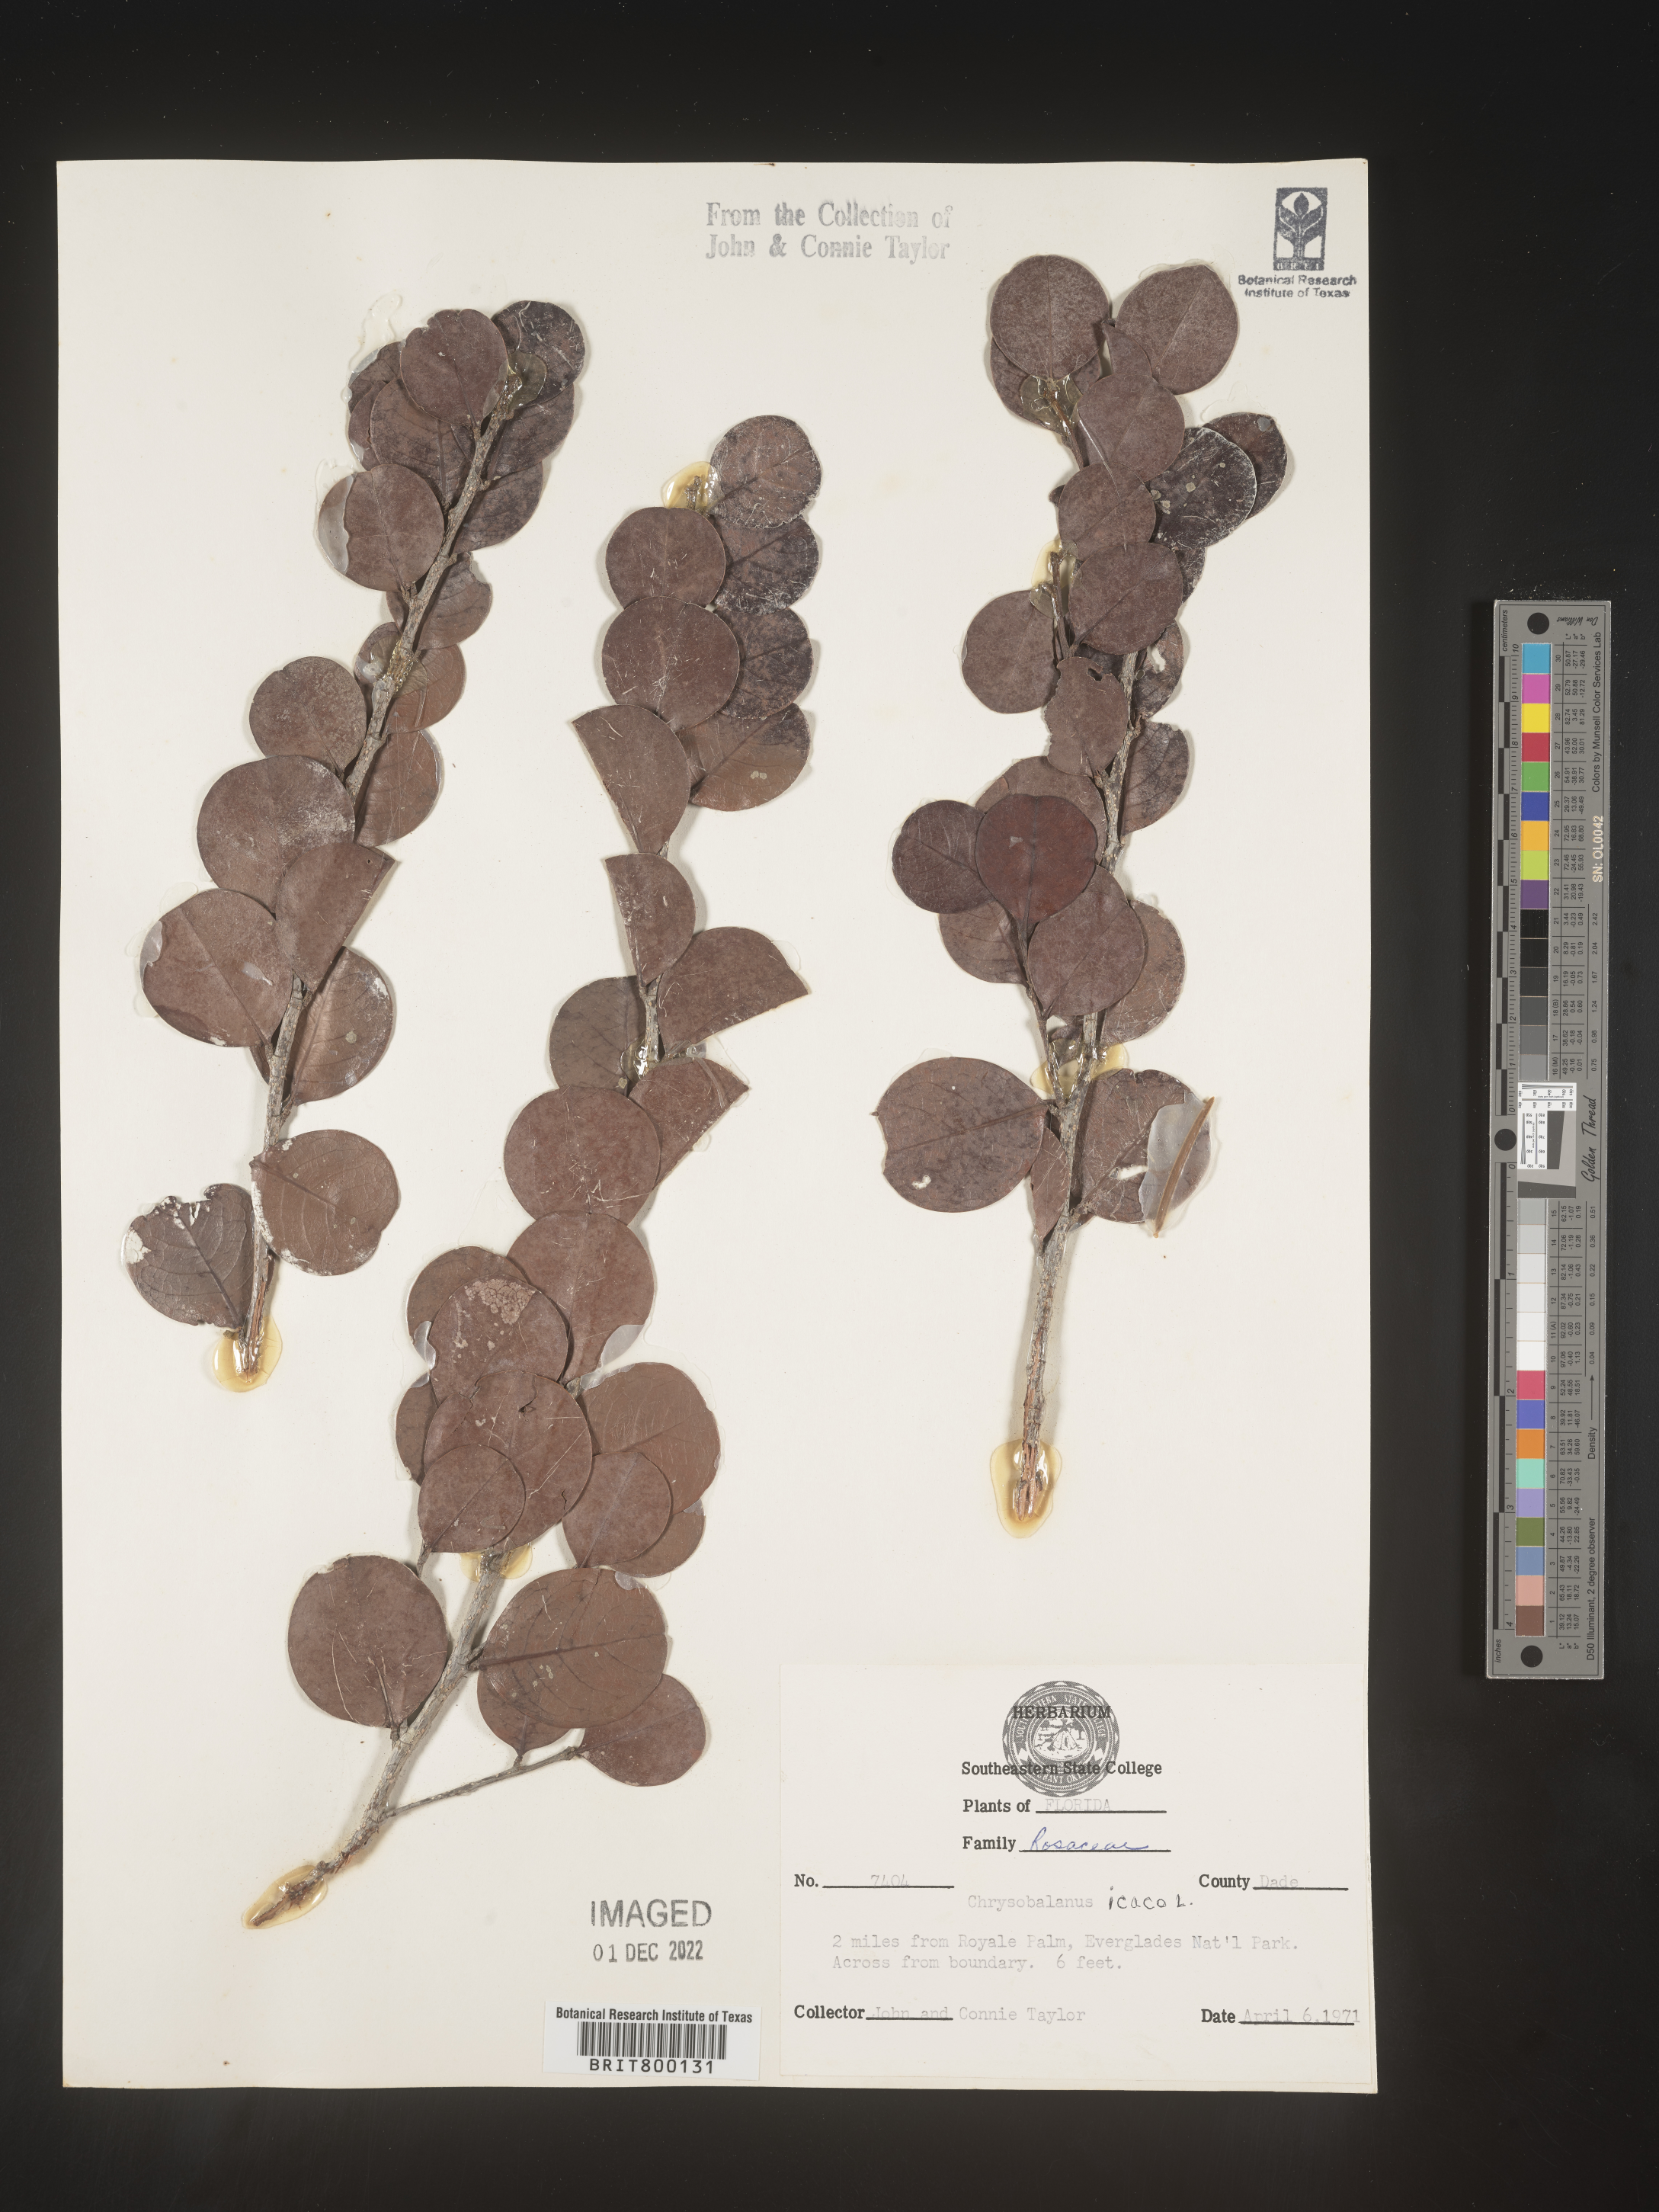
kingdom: Plantae
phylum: Tracheophyta
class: Magnoliopsida
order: Malpighiales
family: Chrysobalanaceae
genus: Chrysobalanus
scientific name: Chrysobalanus icaco
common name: Coco plum
